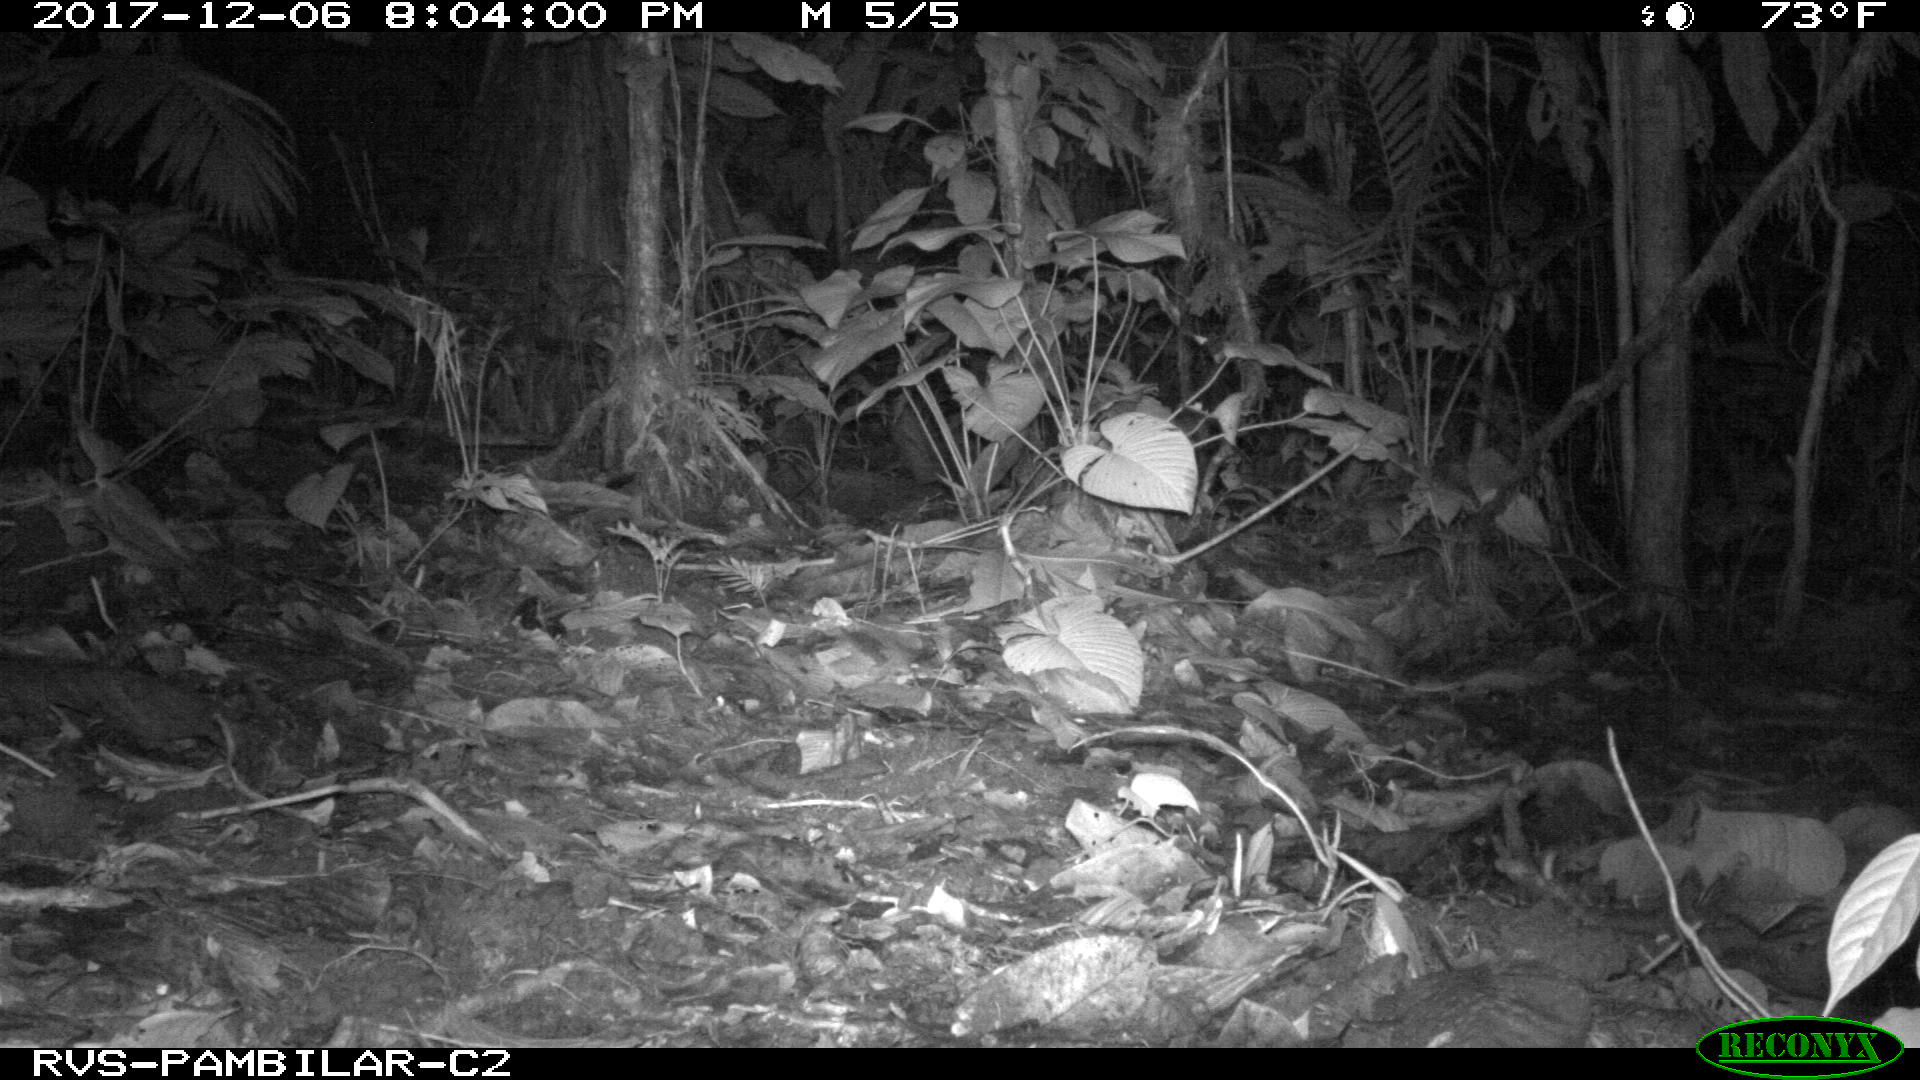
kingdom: Animalia
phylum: Chordata
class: Mammalia
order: Cingulata
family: Dasypodidae
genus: Dasypus
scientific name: Dasypus novemcinctus
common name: Nine-banded armadillo
